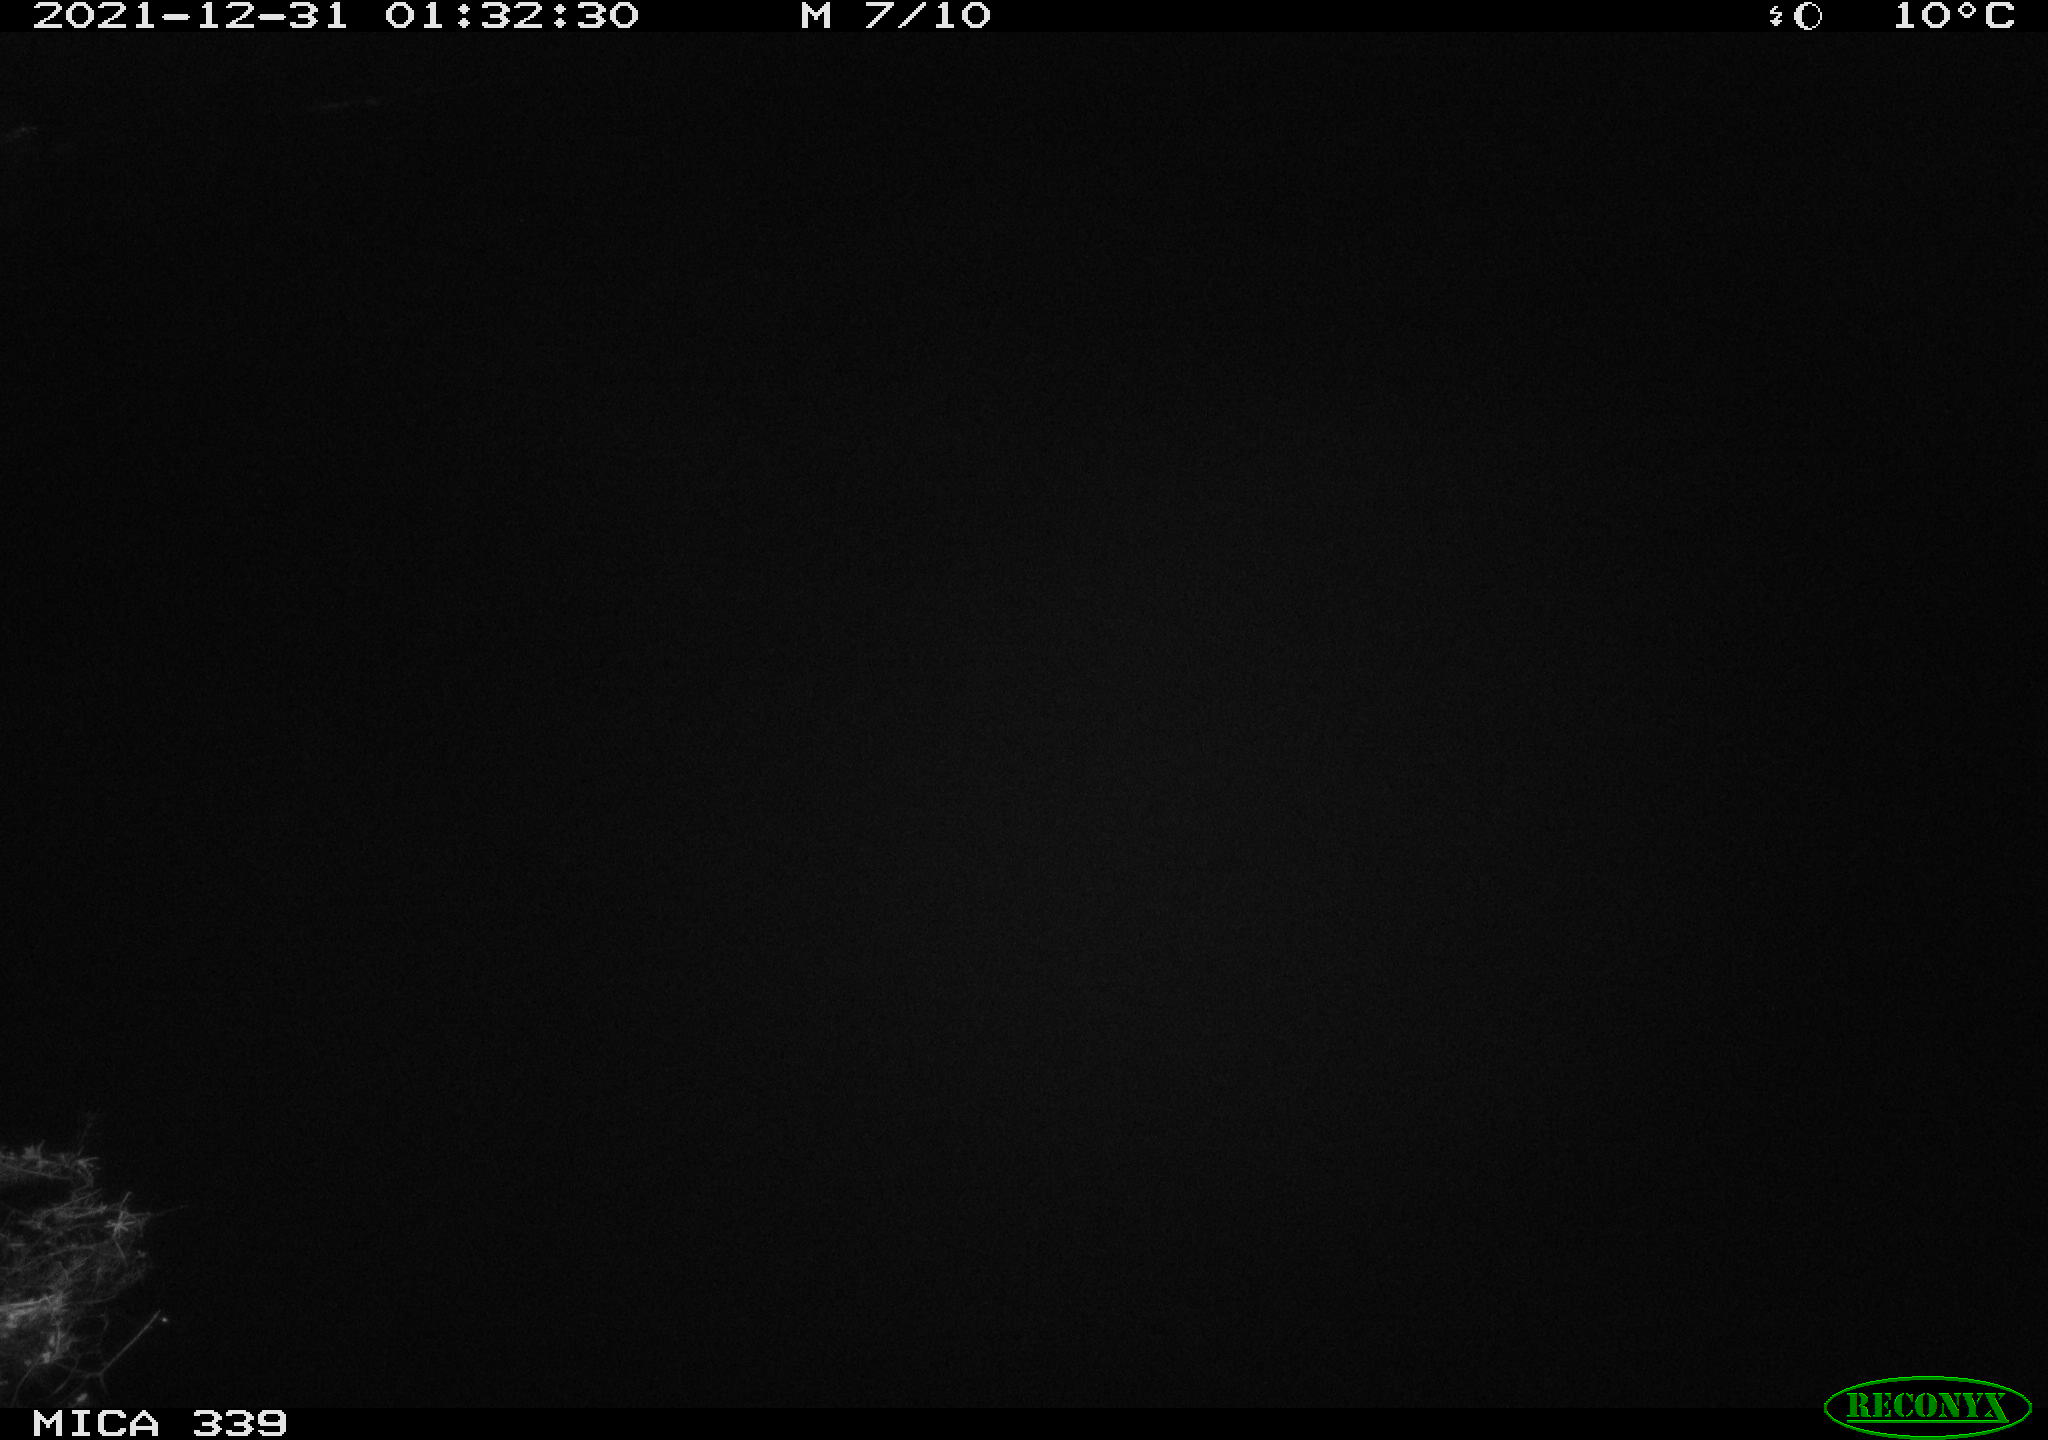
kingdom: Animalia
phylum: Chordata
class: Aves
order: Gruiformes
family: Rallidae
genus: Gallinula
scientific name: Gallinula chloropus
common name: Common moorhen
